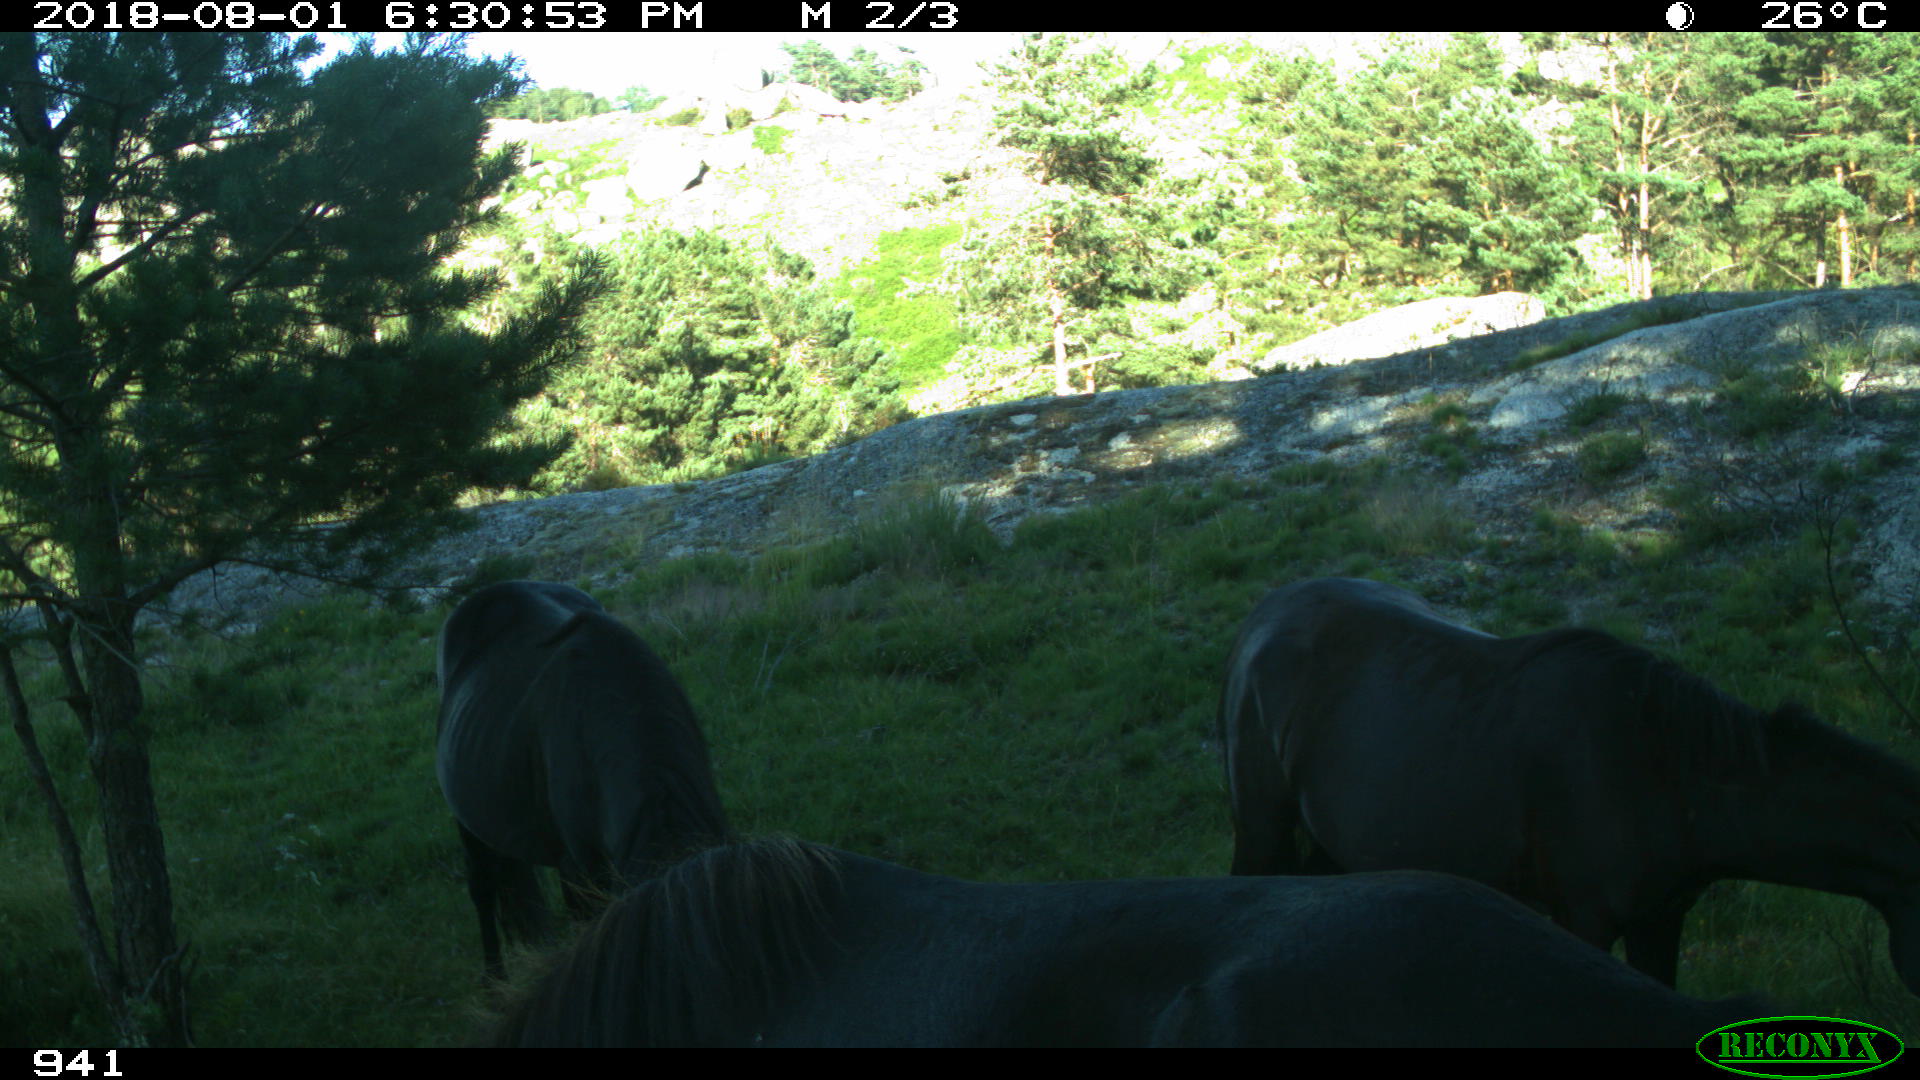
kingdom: Animalia
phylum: Chordata
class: Mammalia
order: Perissodactyla
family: Equidae
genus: Equus
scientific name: Equus caballus
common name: Horse
